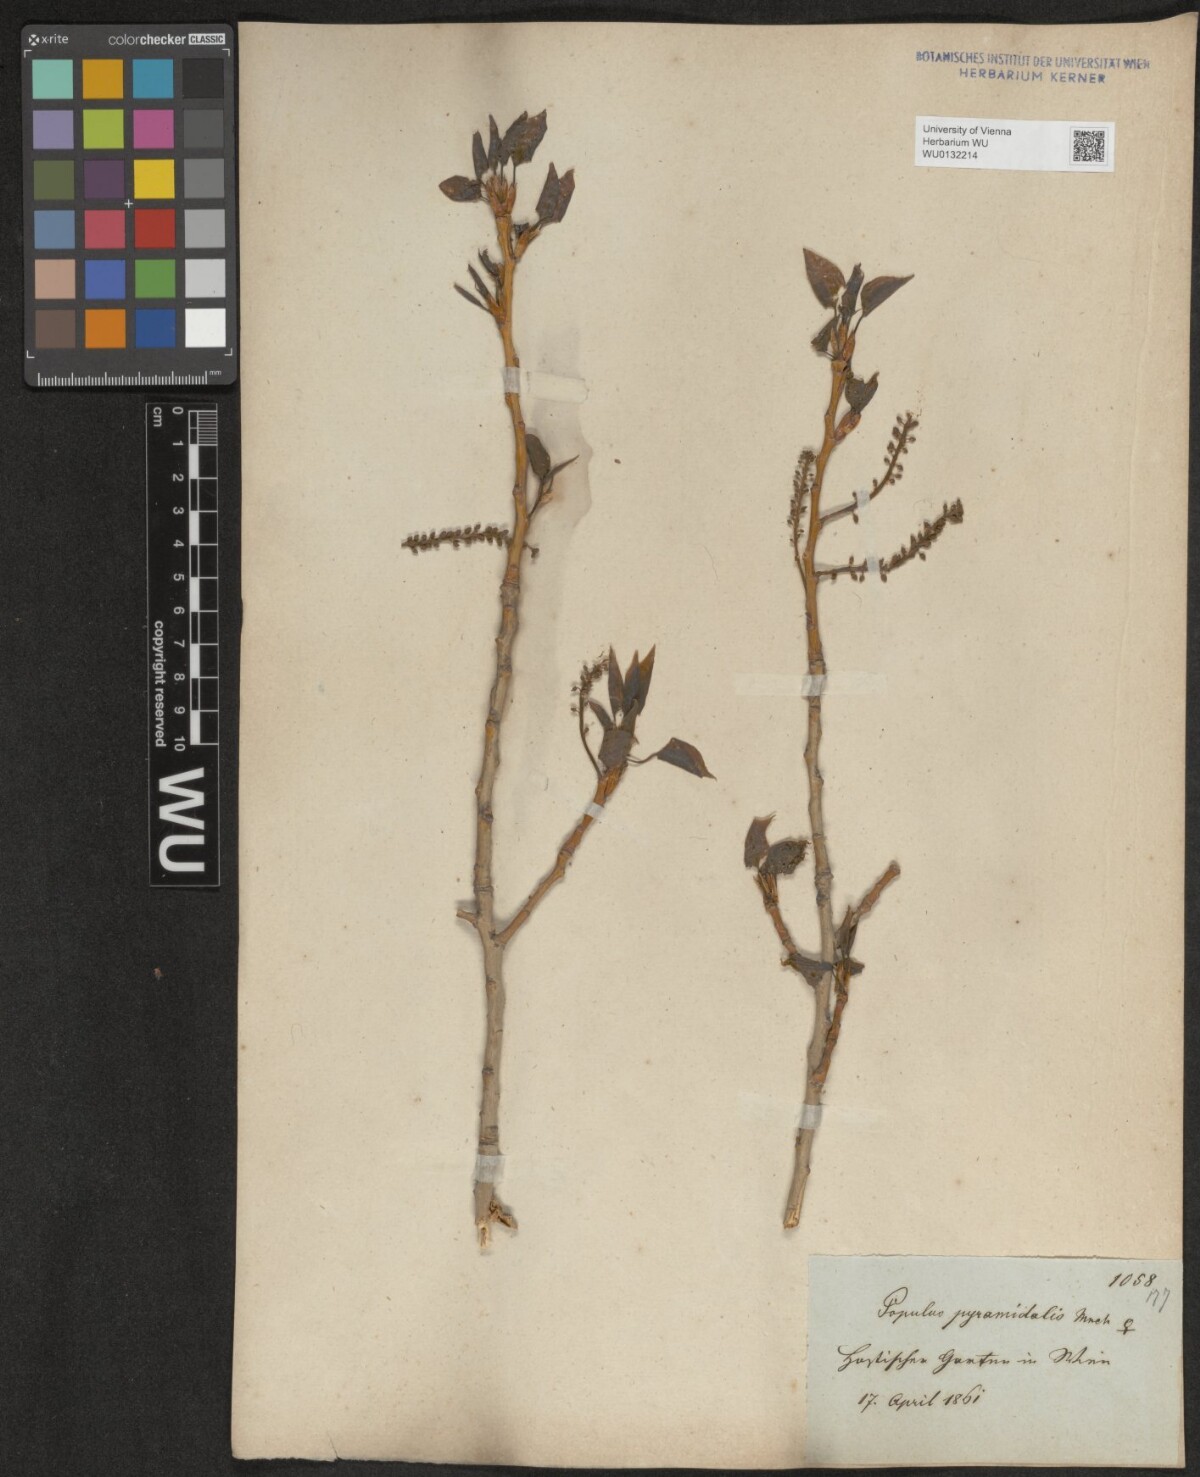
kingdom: Plantae
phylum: Tracheophyta
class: Magnoliopsida
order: Malpighiales
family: Salicaceae
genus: Populus
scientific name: Populus nigra
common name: Black poplar
